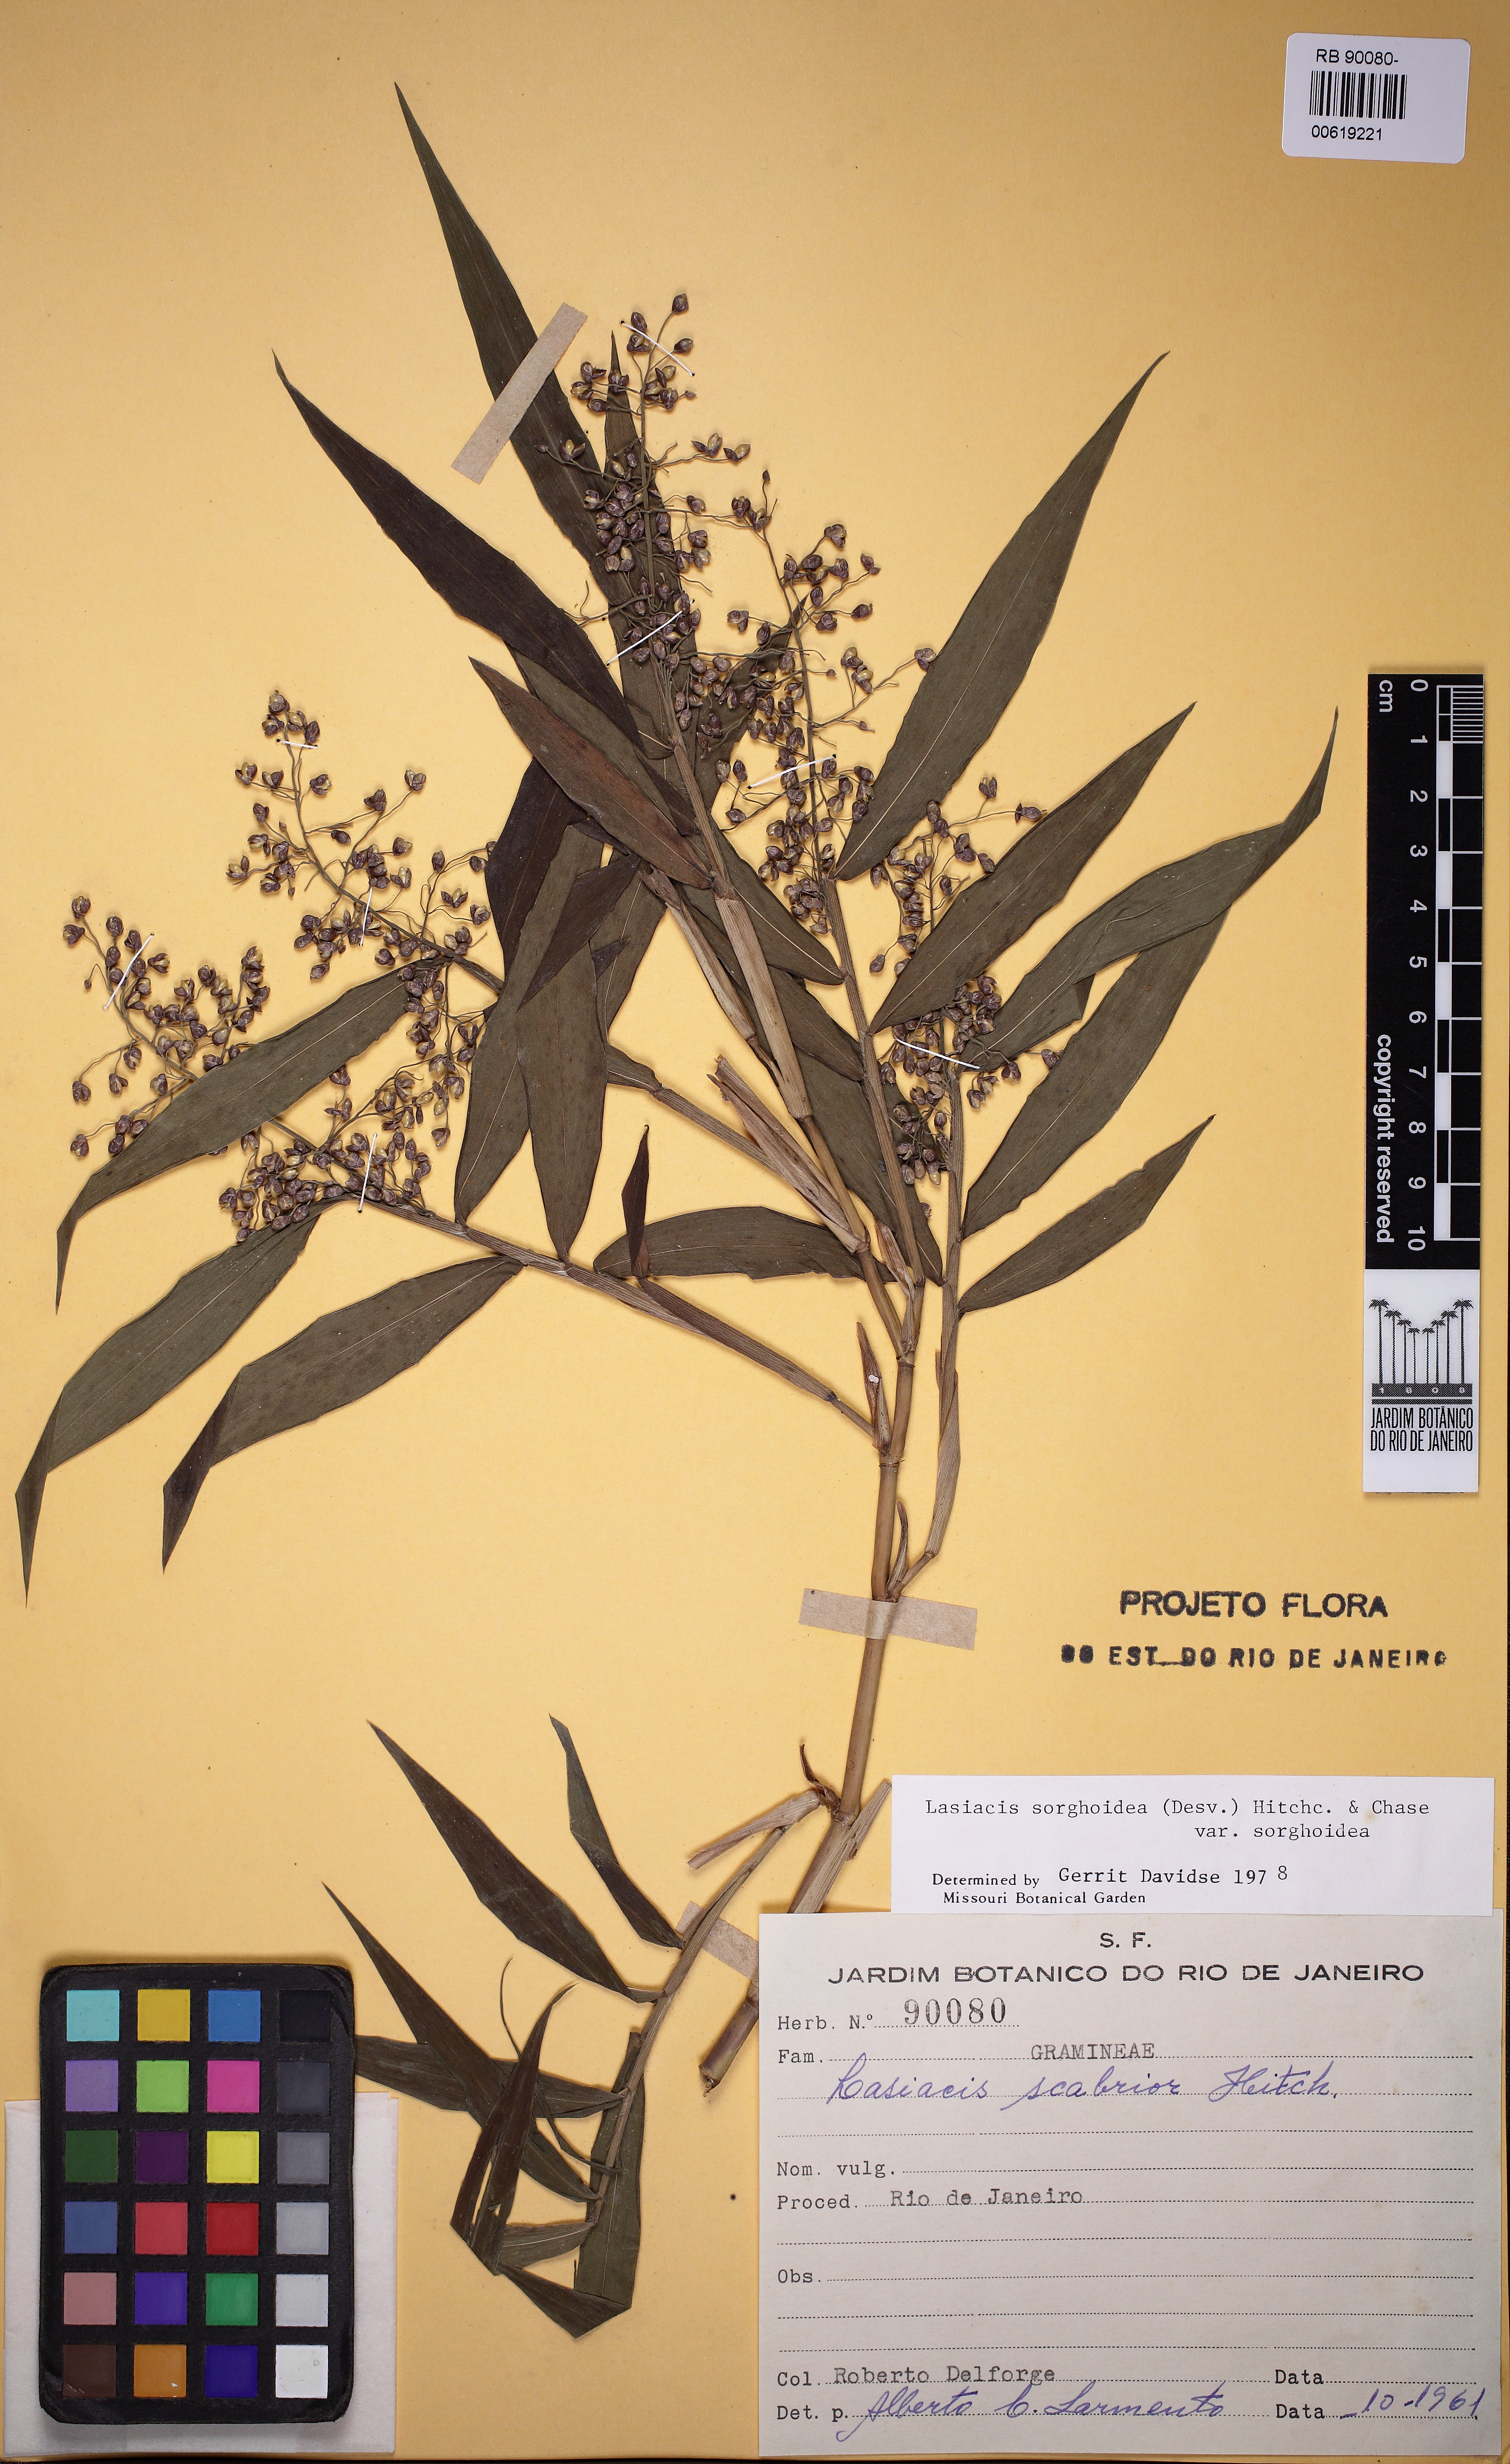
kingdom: Plantae
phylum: Tracheophyta
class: Liliopsida
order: Poales
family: Poaceae
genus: Lasiacis
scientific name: Lasiacis maculata
